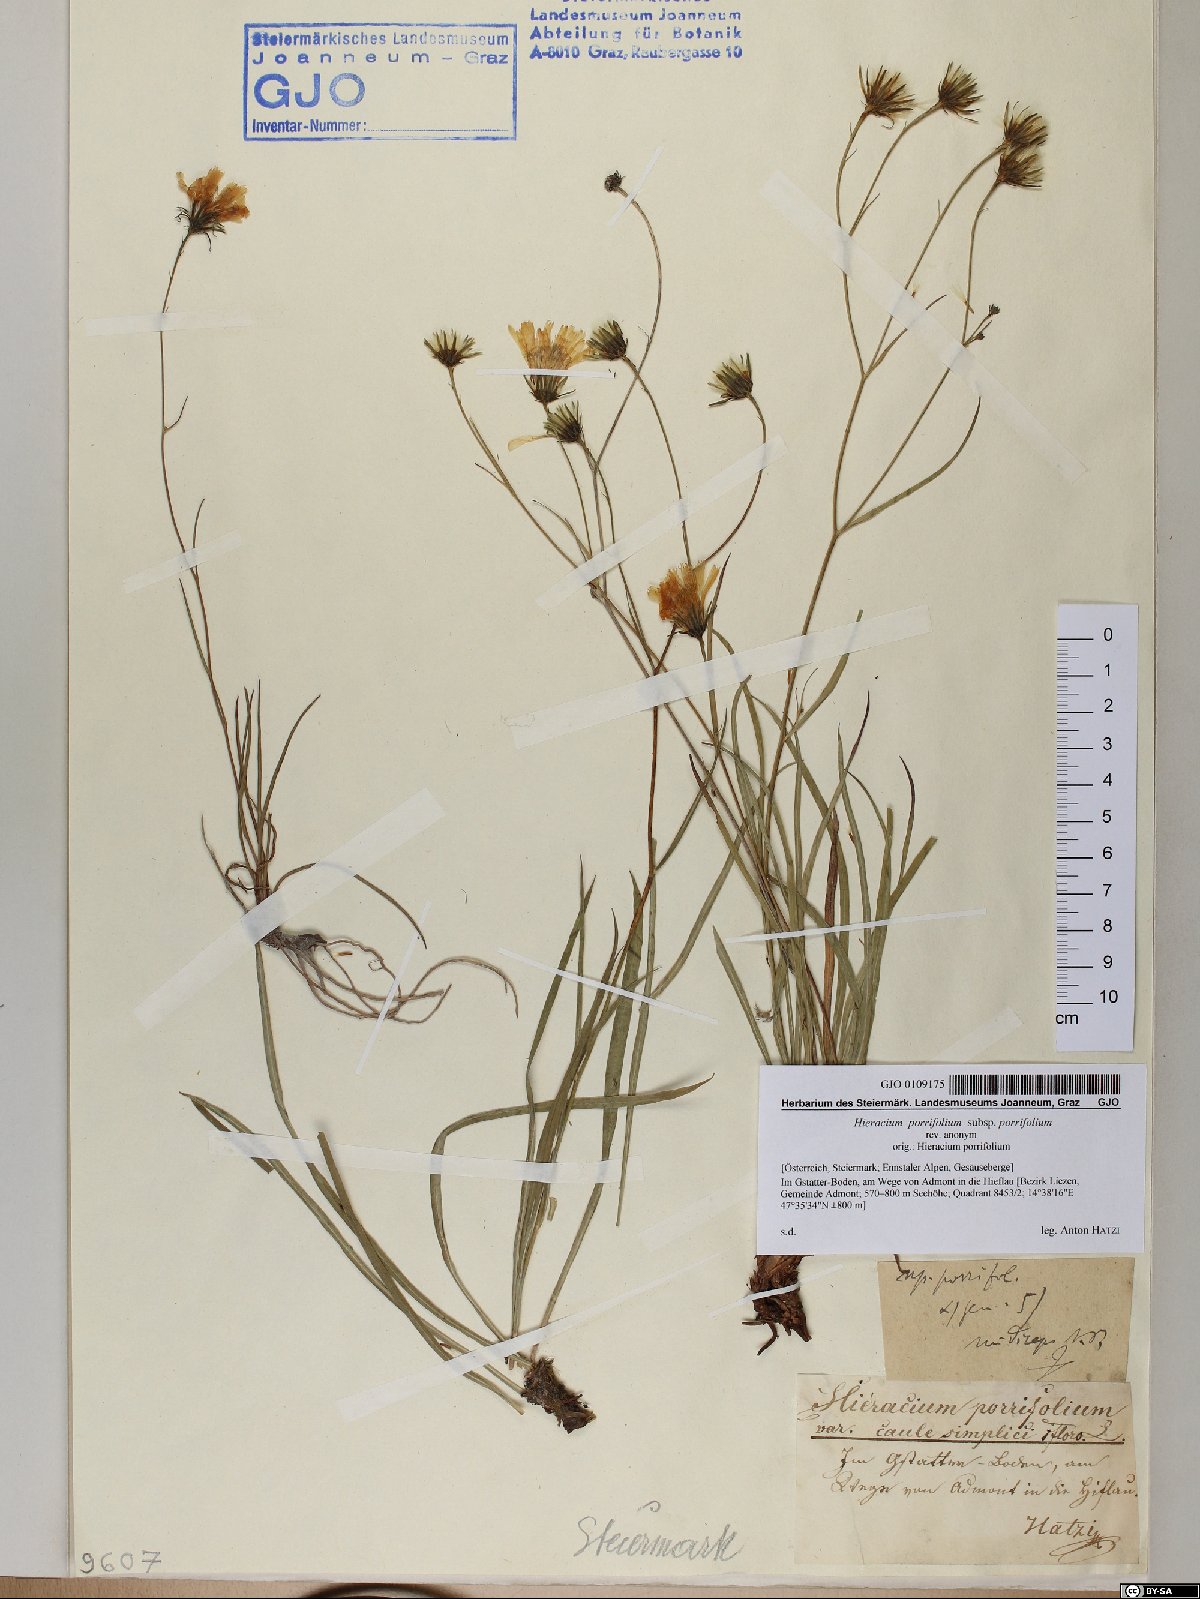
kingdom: Plantae
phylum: Tracheophyta
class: Magnoliopsida
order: Asterales
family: Asteraceae
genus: Hieracium
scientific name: Hieracium porrifolium
